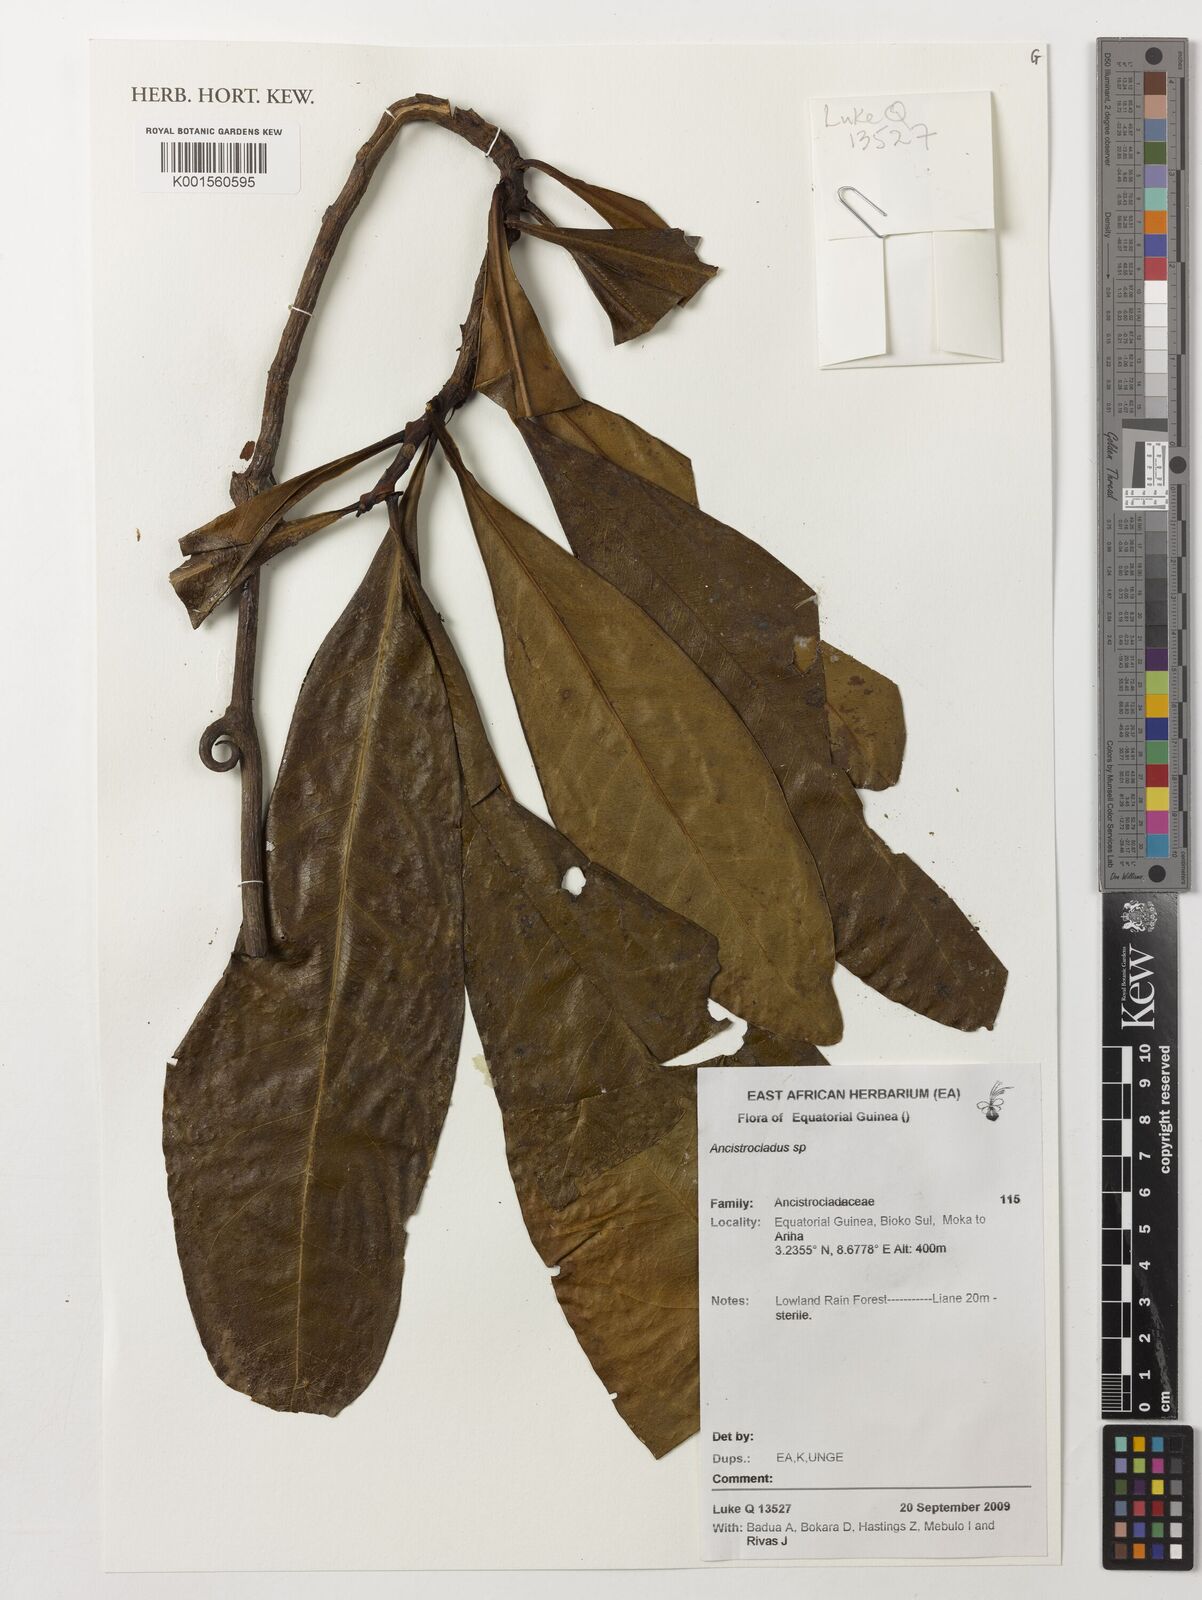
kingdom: Plantae
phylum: Tracheophyta
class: Magnoliopsida
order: Caryophyllales
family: Ancistrocladaceae
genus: Ancistrocladus
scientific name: Ancistrocladus
